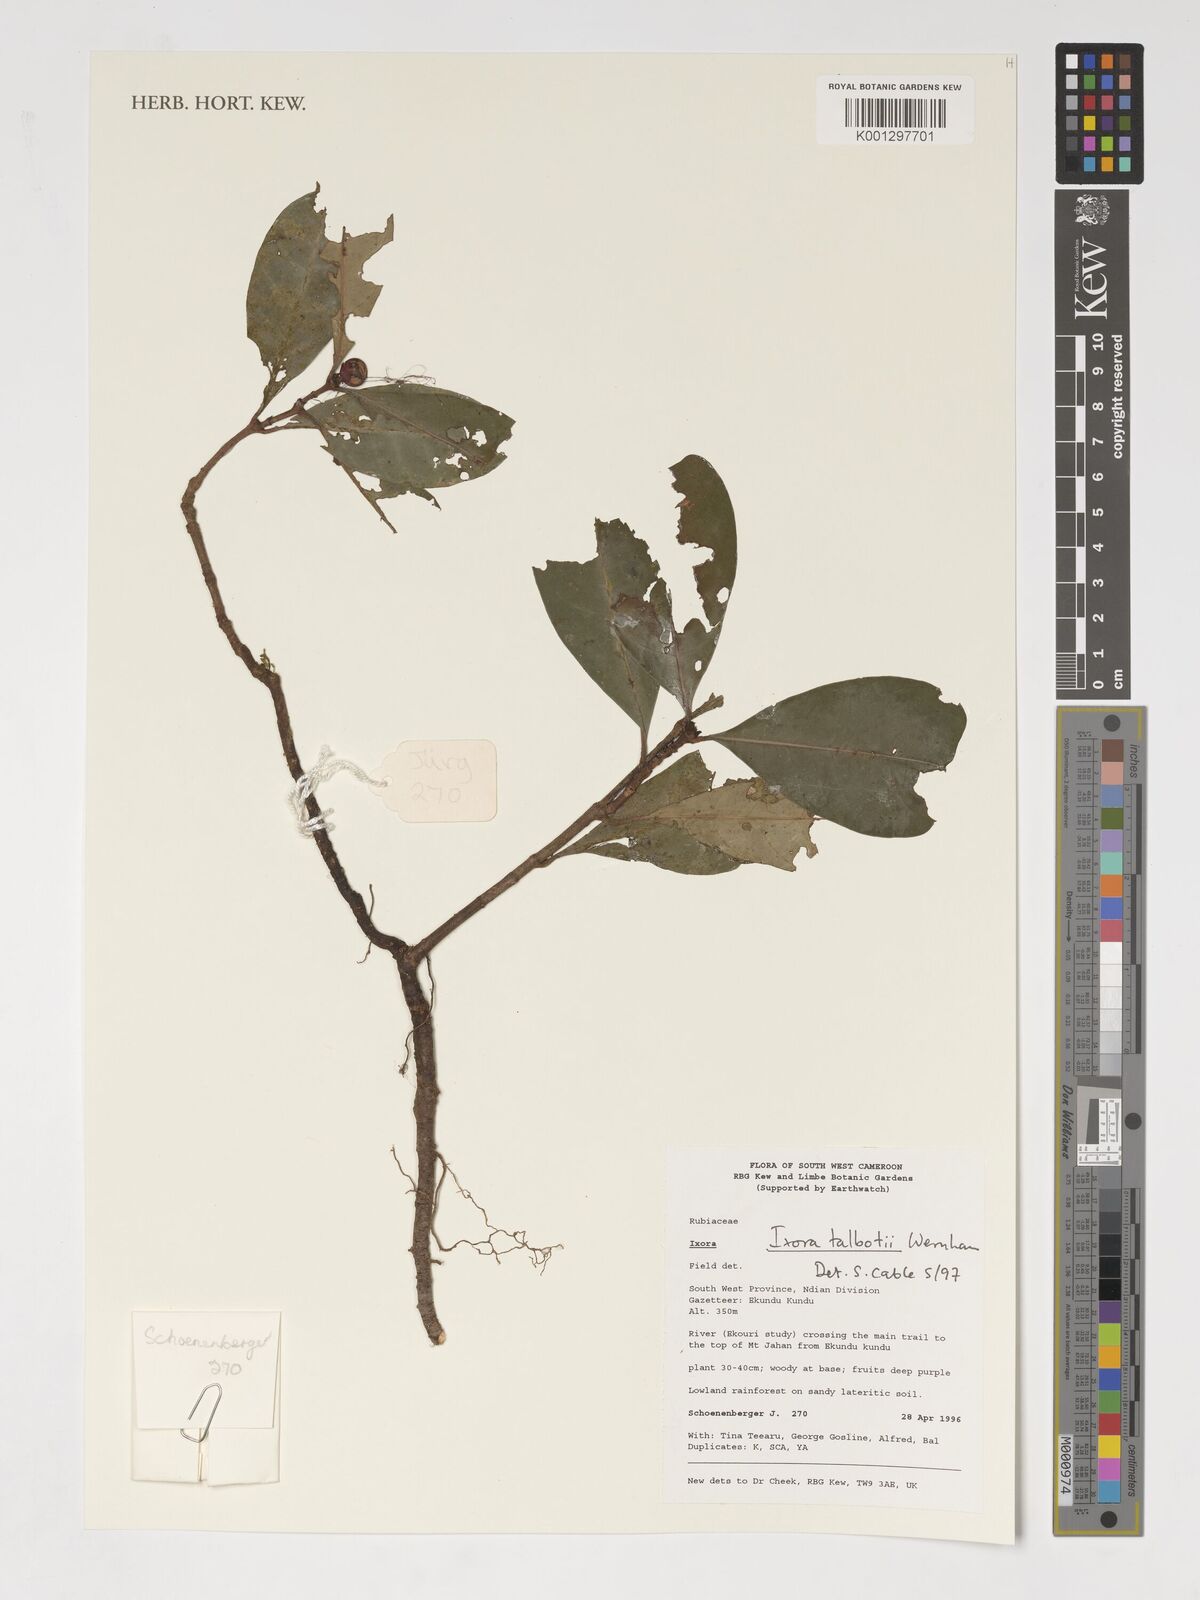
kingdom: Plantae
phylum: Tracheophyta
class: Magnoliopsida
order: Gentianales
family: Rubiaceae
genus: Ixora
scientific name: Ixora guineensis
